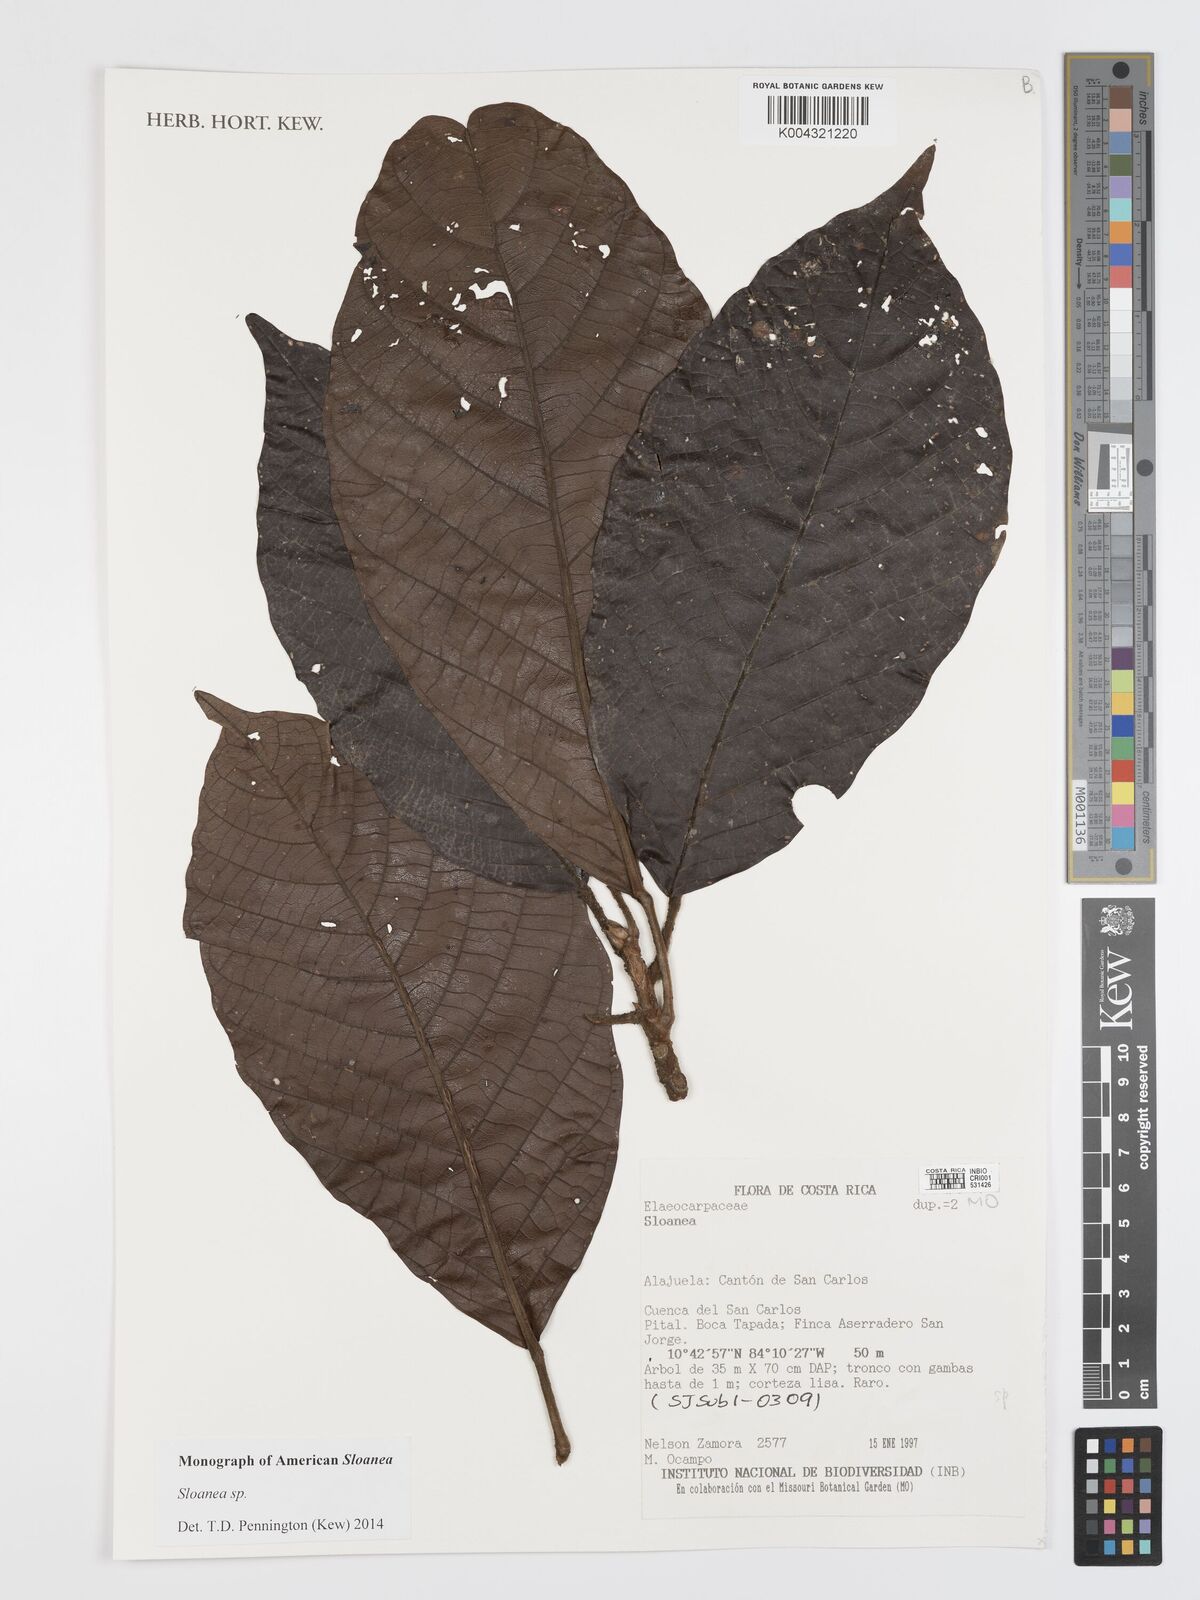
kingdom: Plantae
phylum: Tracheophyta
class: Magnoliopsida
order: Oxalidales
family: Elaeocarpaceae
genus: Sloanea
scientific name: Sloanea
